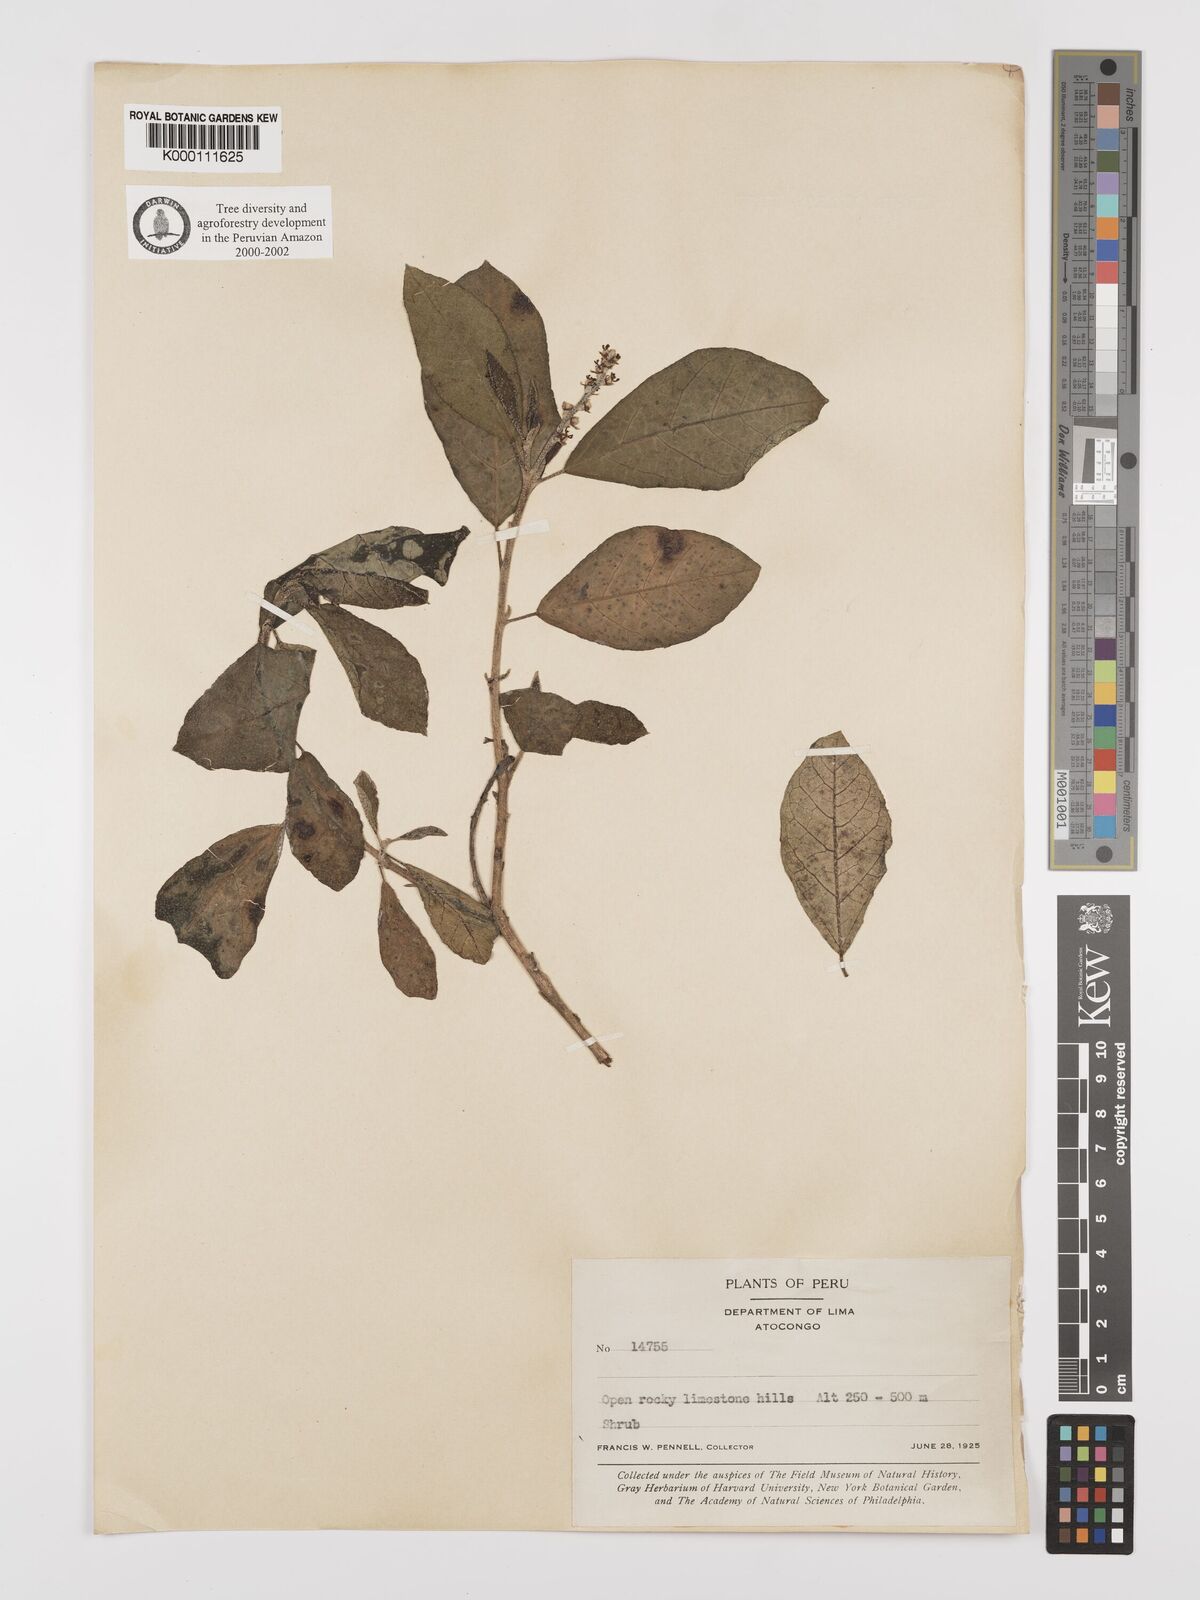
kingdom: Plantae
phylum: Tracheophyta
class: Magnoliopsida
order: Malpighiales
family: Euphorbiaceae
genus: Croton
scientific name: Croton alnifolius
